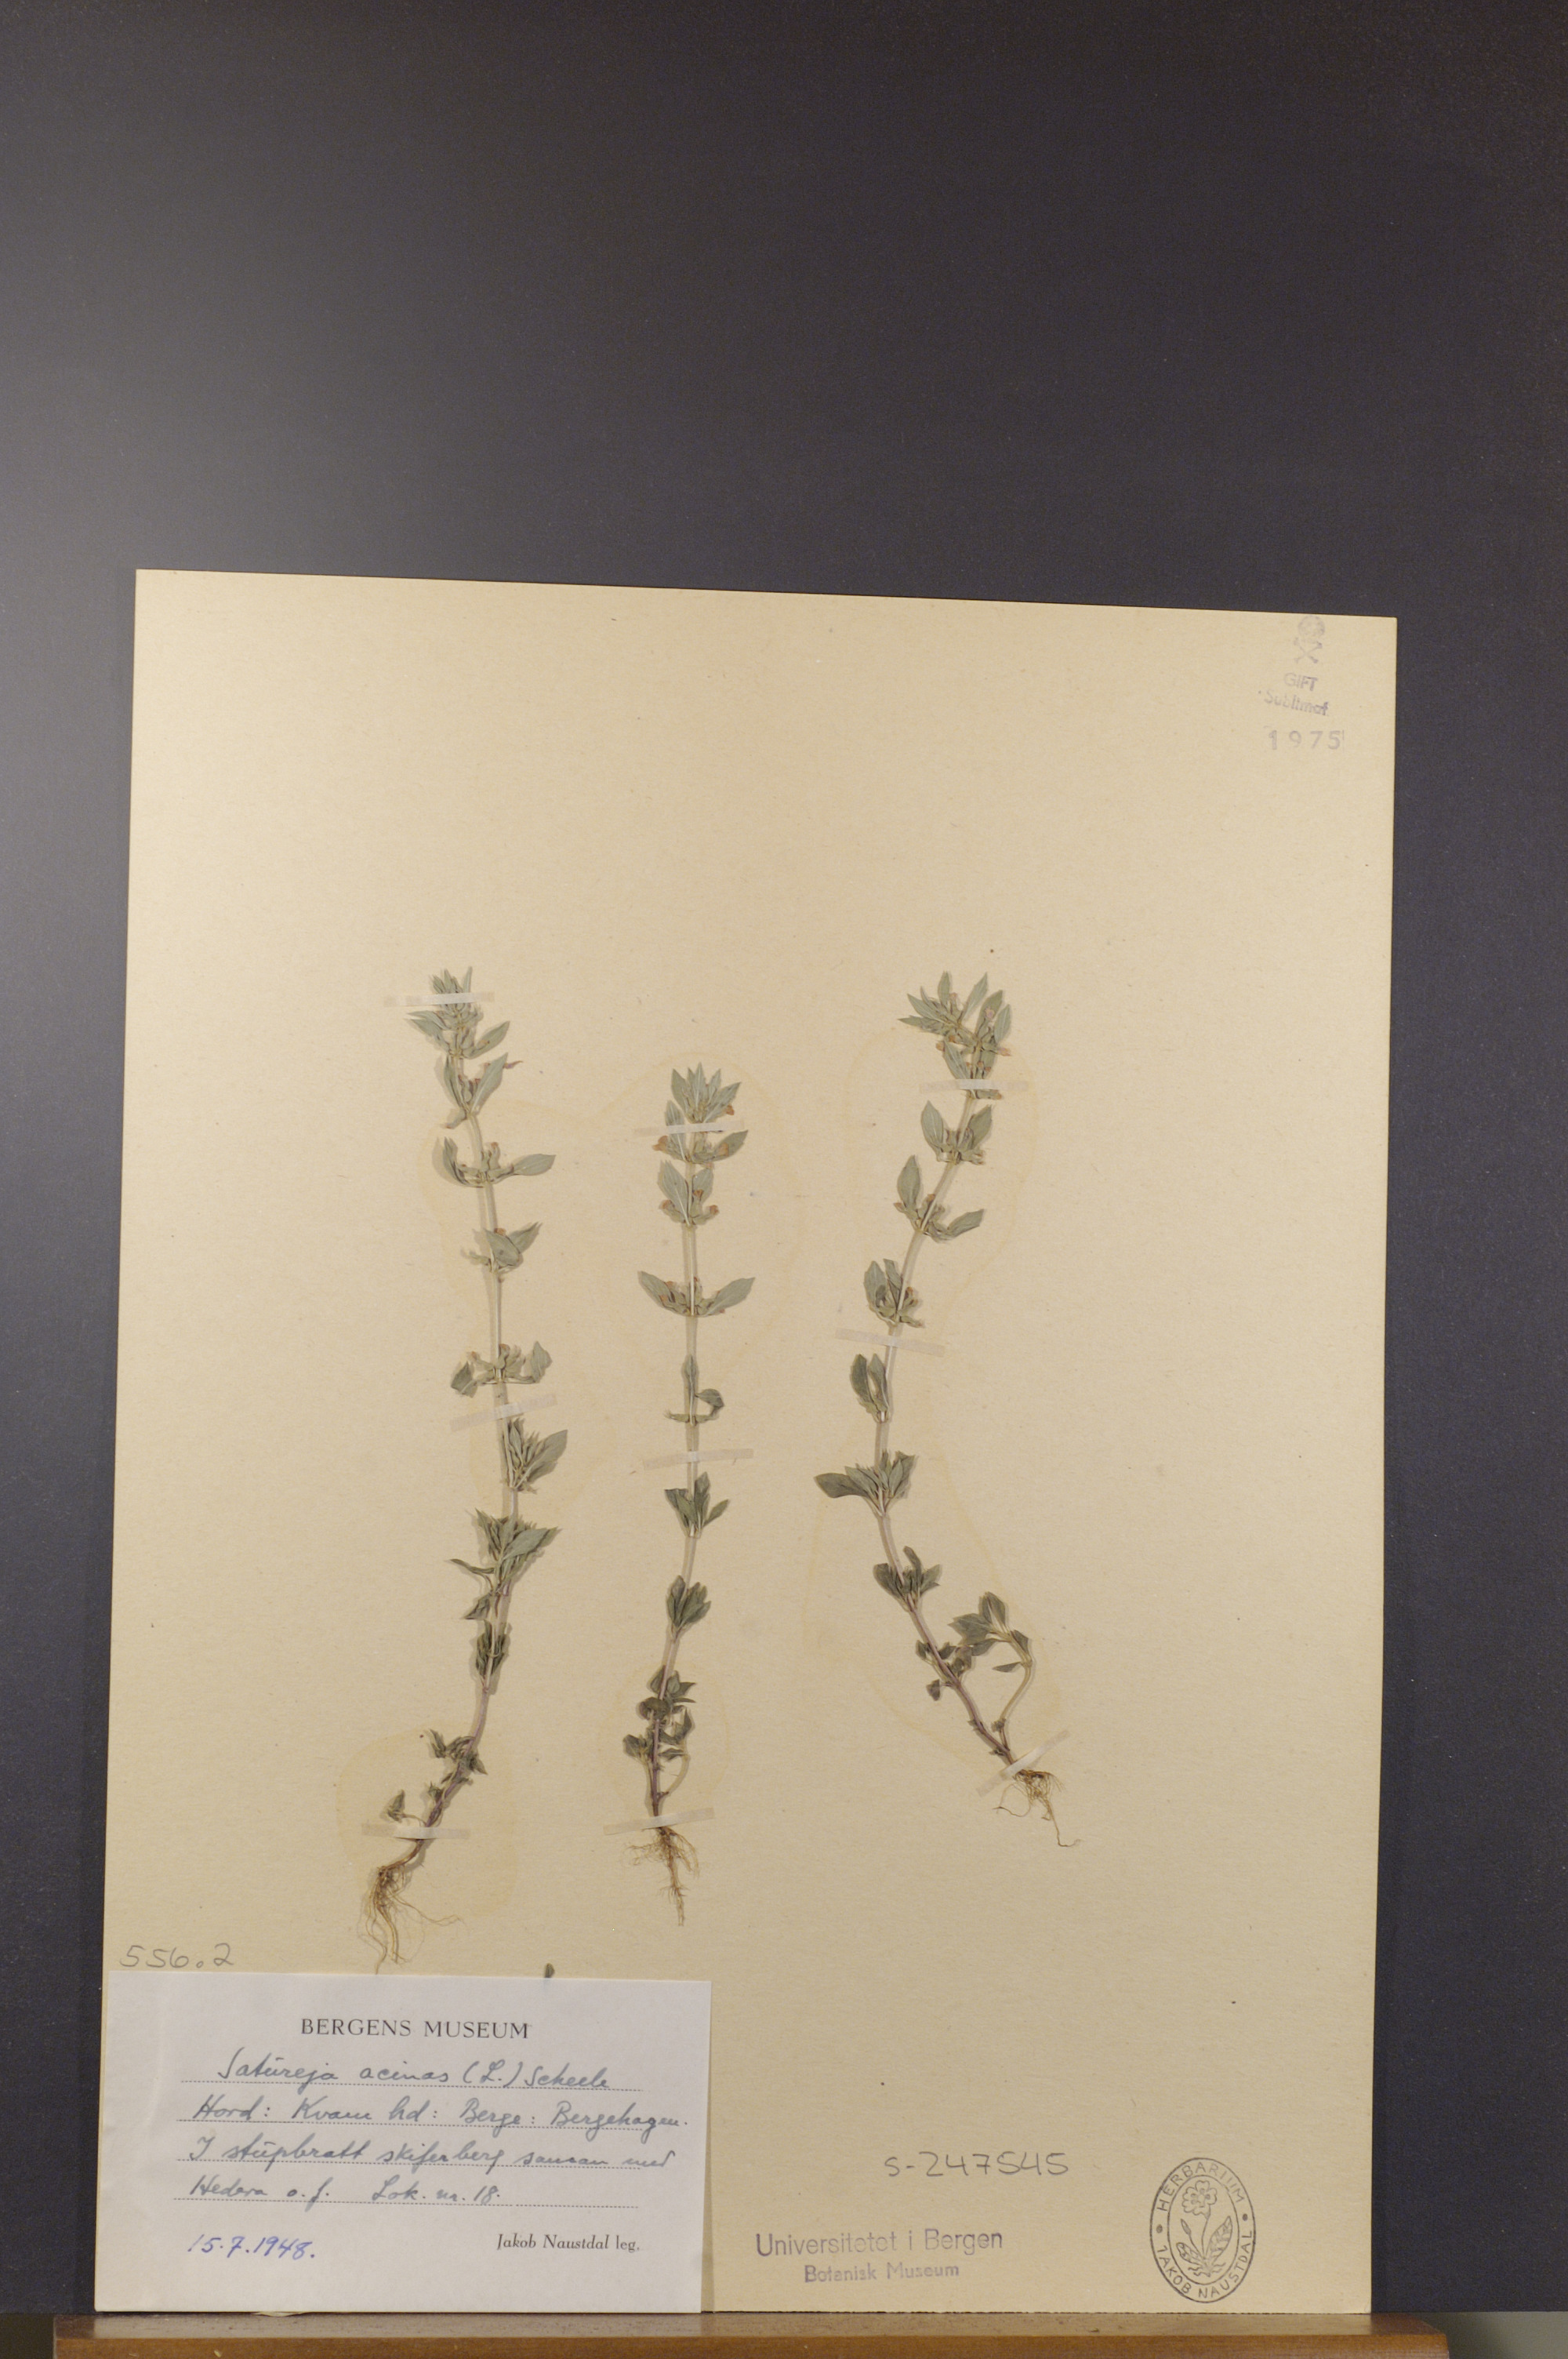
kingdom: Plantae
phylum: Tracheophyta
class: Magnoliopsida
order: Lamiales
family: Lamiaceae
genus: Clinopodium
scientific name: Clinopodium acinos
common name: Basil thyme
